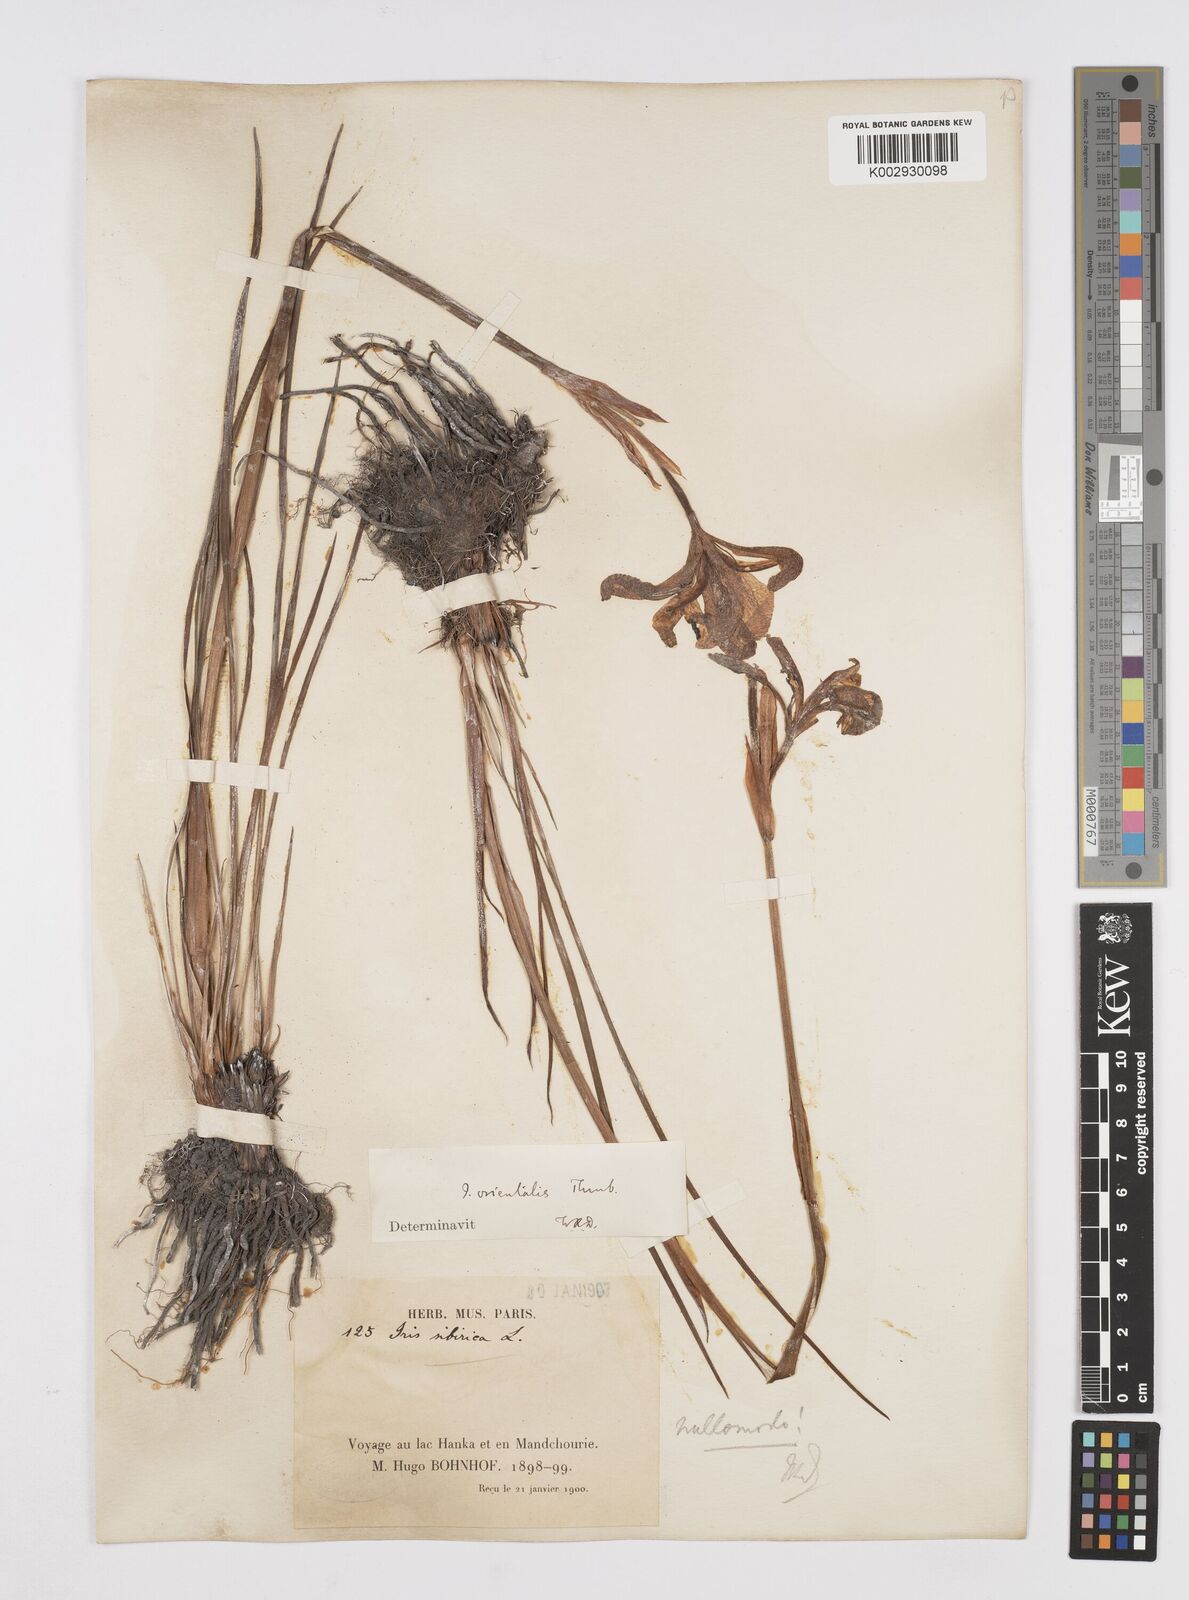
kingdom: Plantae
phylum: Tracheophyta
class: Liliopsida
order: Asparagales
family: Iridaceae
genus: Iris
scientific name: Iris sanguinea
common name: Blood iris
